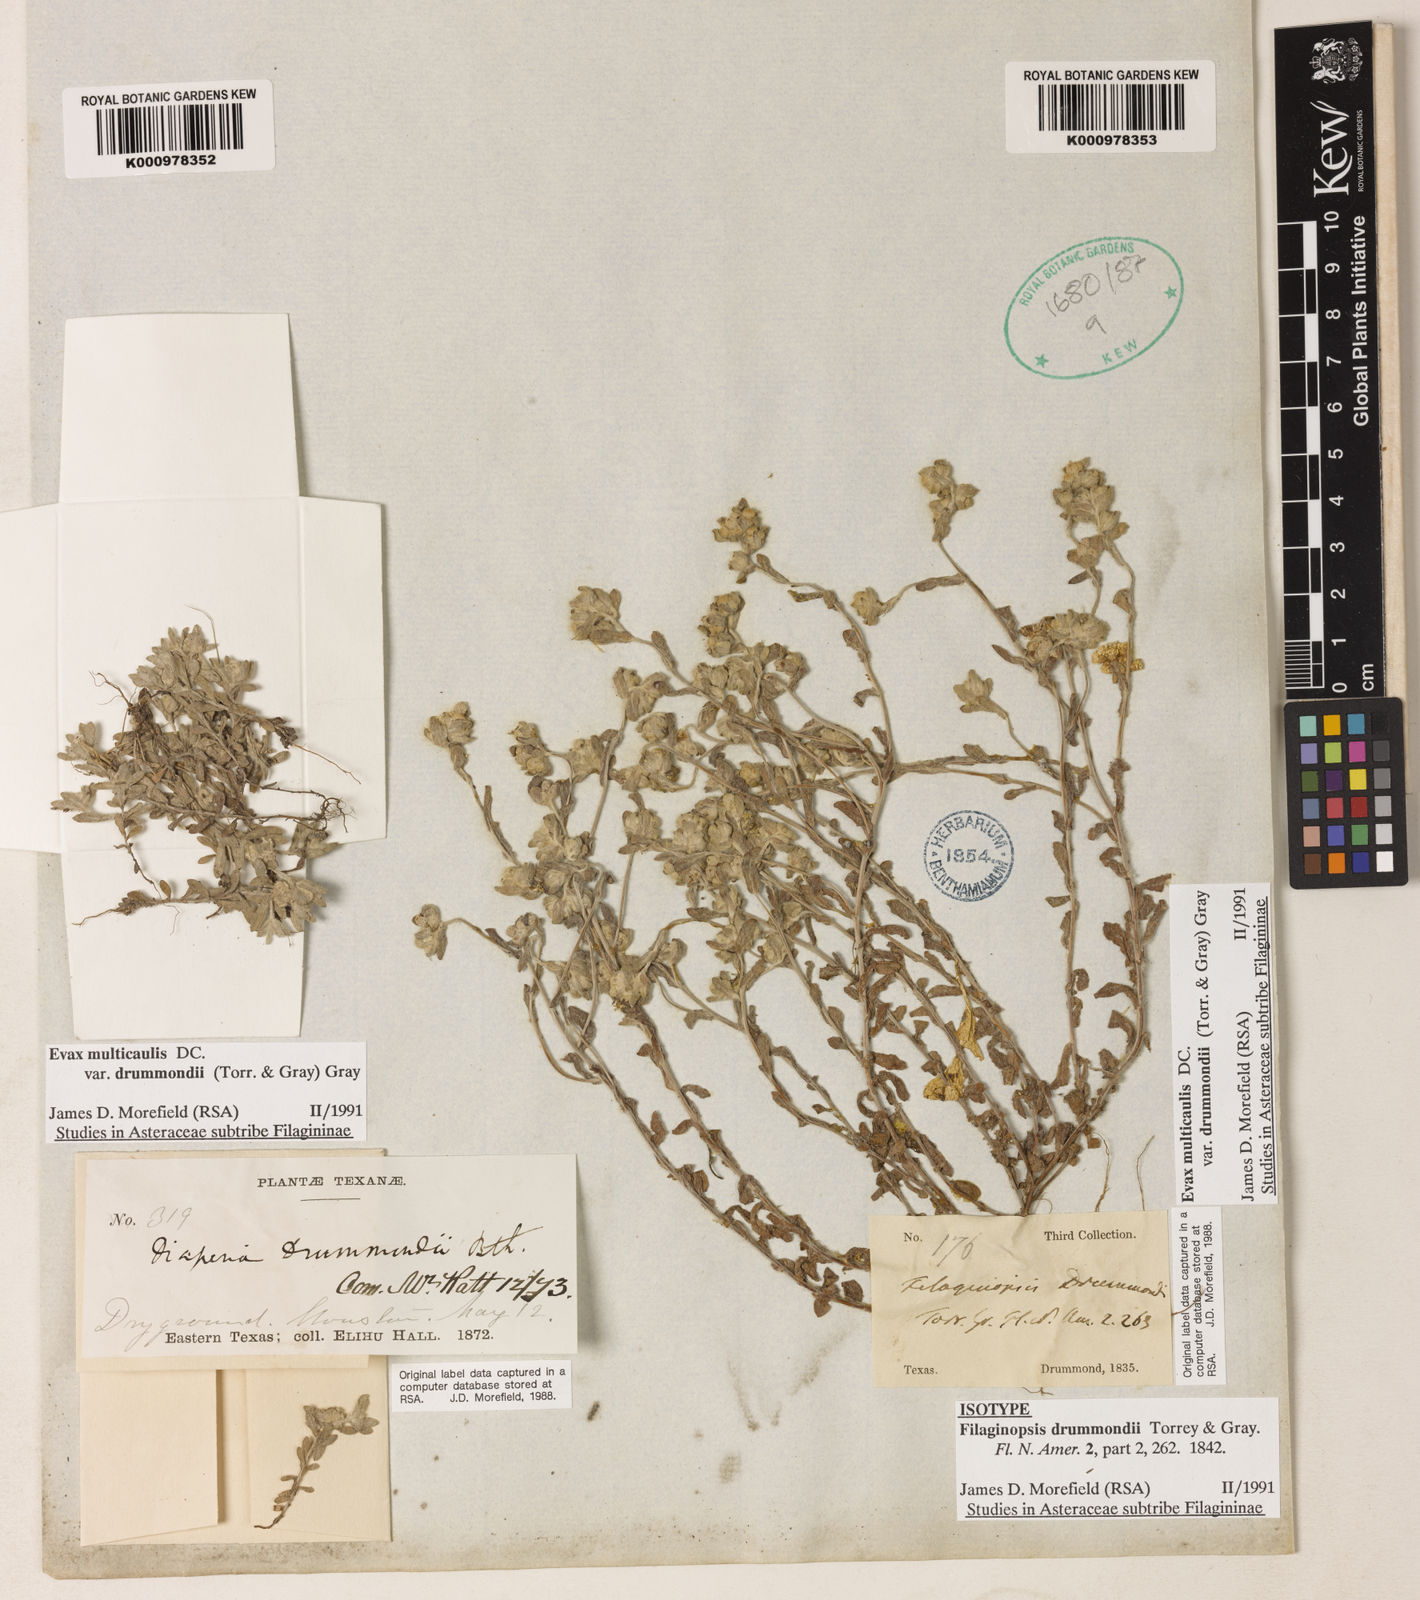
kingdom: Plantae
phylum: Tracheophyta
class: Magnoliopsida
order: Asterales
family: Asteraceae
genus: Diaperia
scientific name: Diaperia verna
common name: Many-stem rabbit-tobacco
